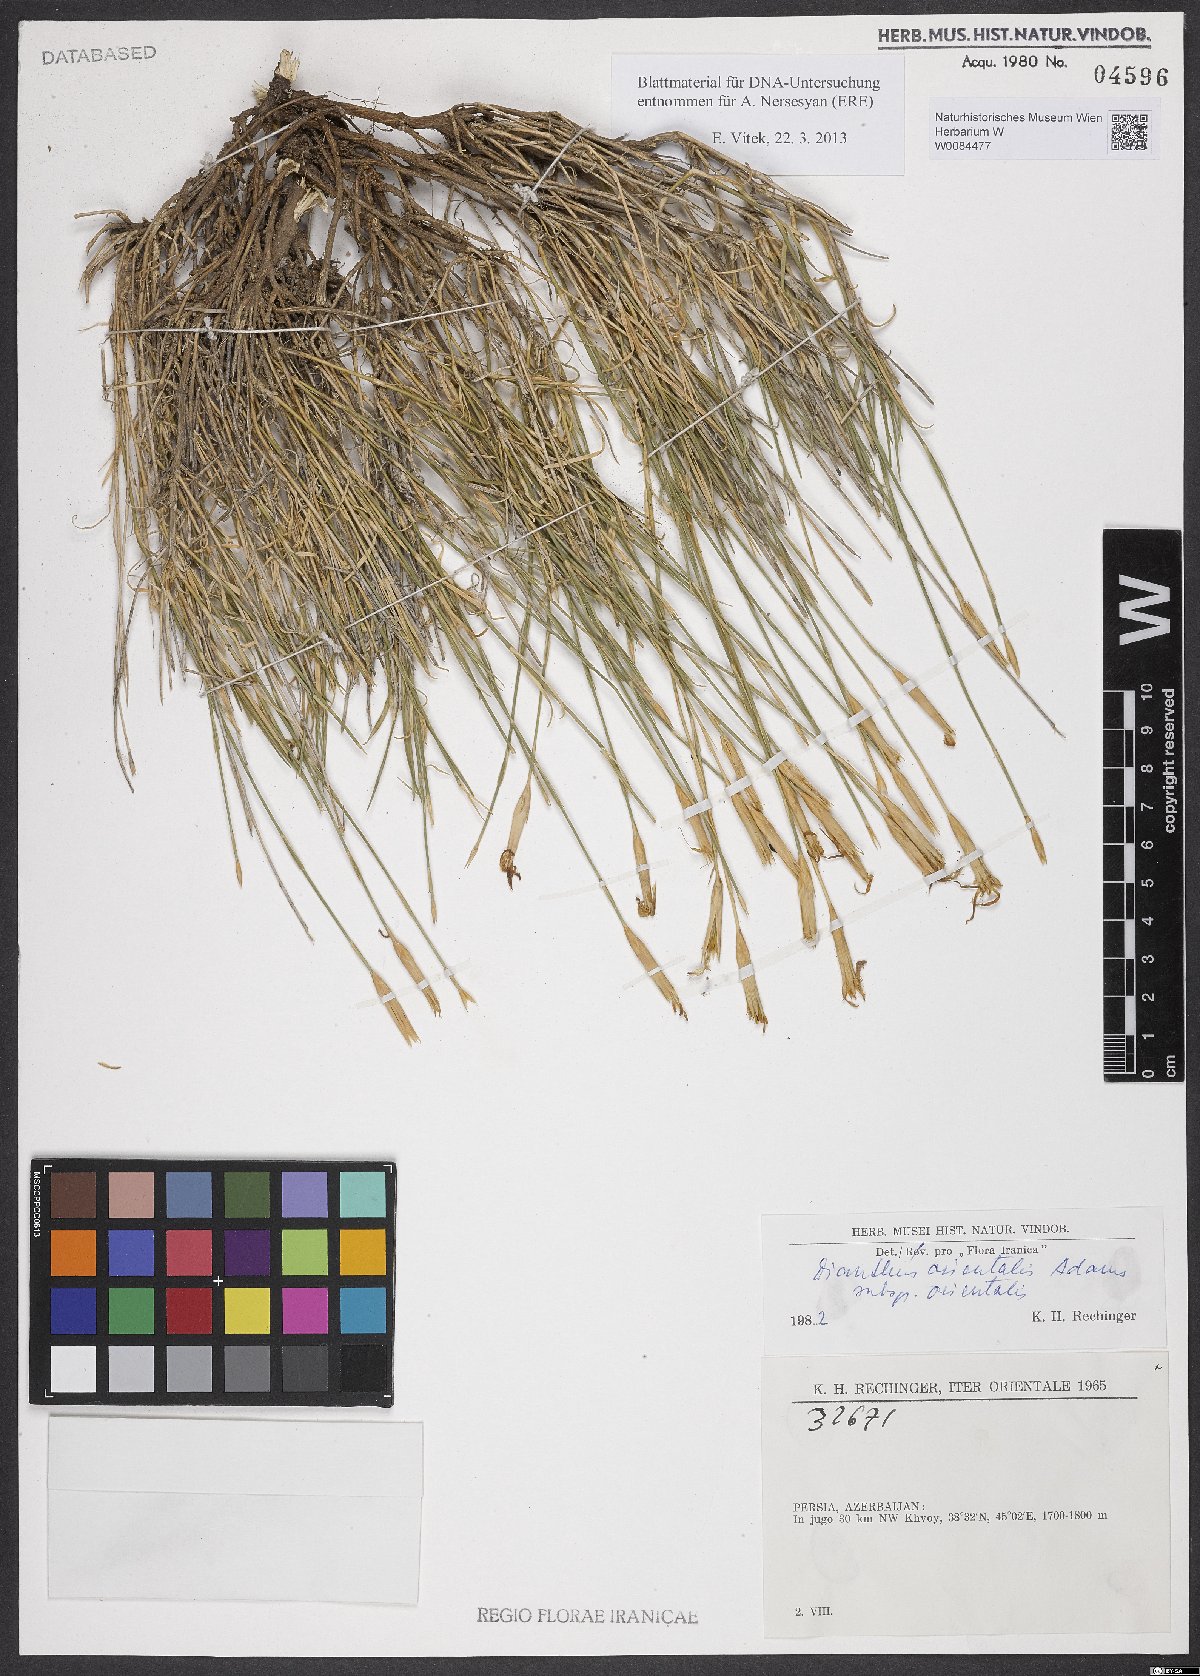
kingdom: Plantae
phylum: Tracheophyta
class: Magnoliopsida
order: Caryophyllales
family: Caryophyllaceae
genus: Dianthus
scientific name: Dianthus orientalis
